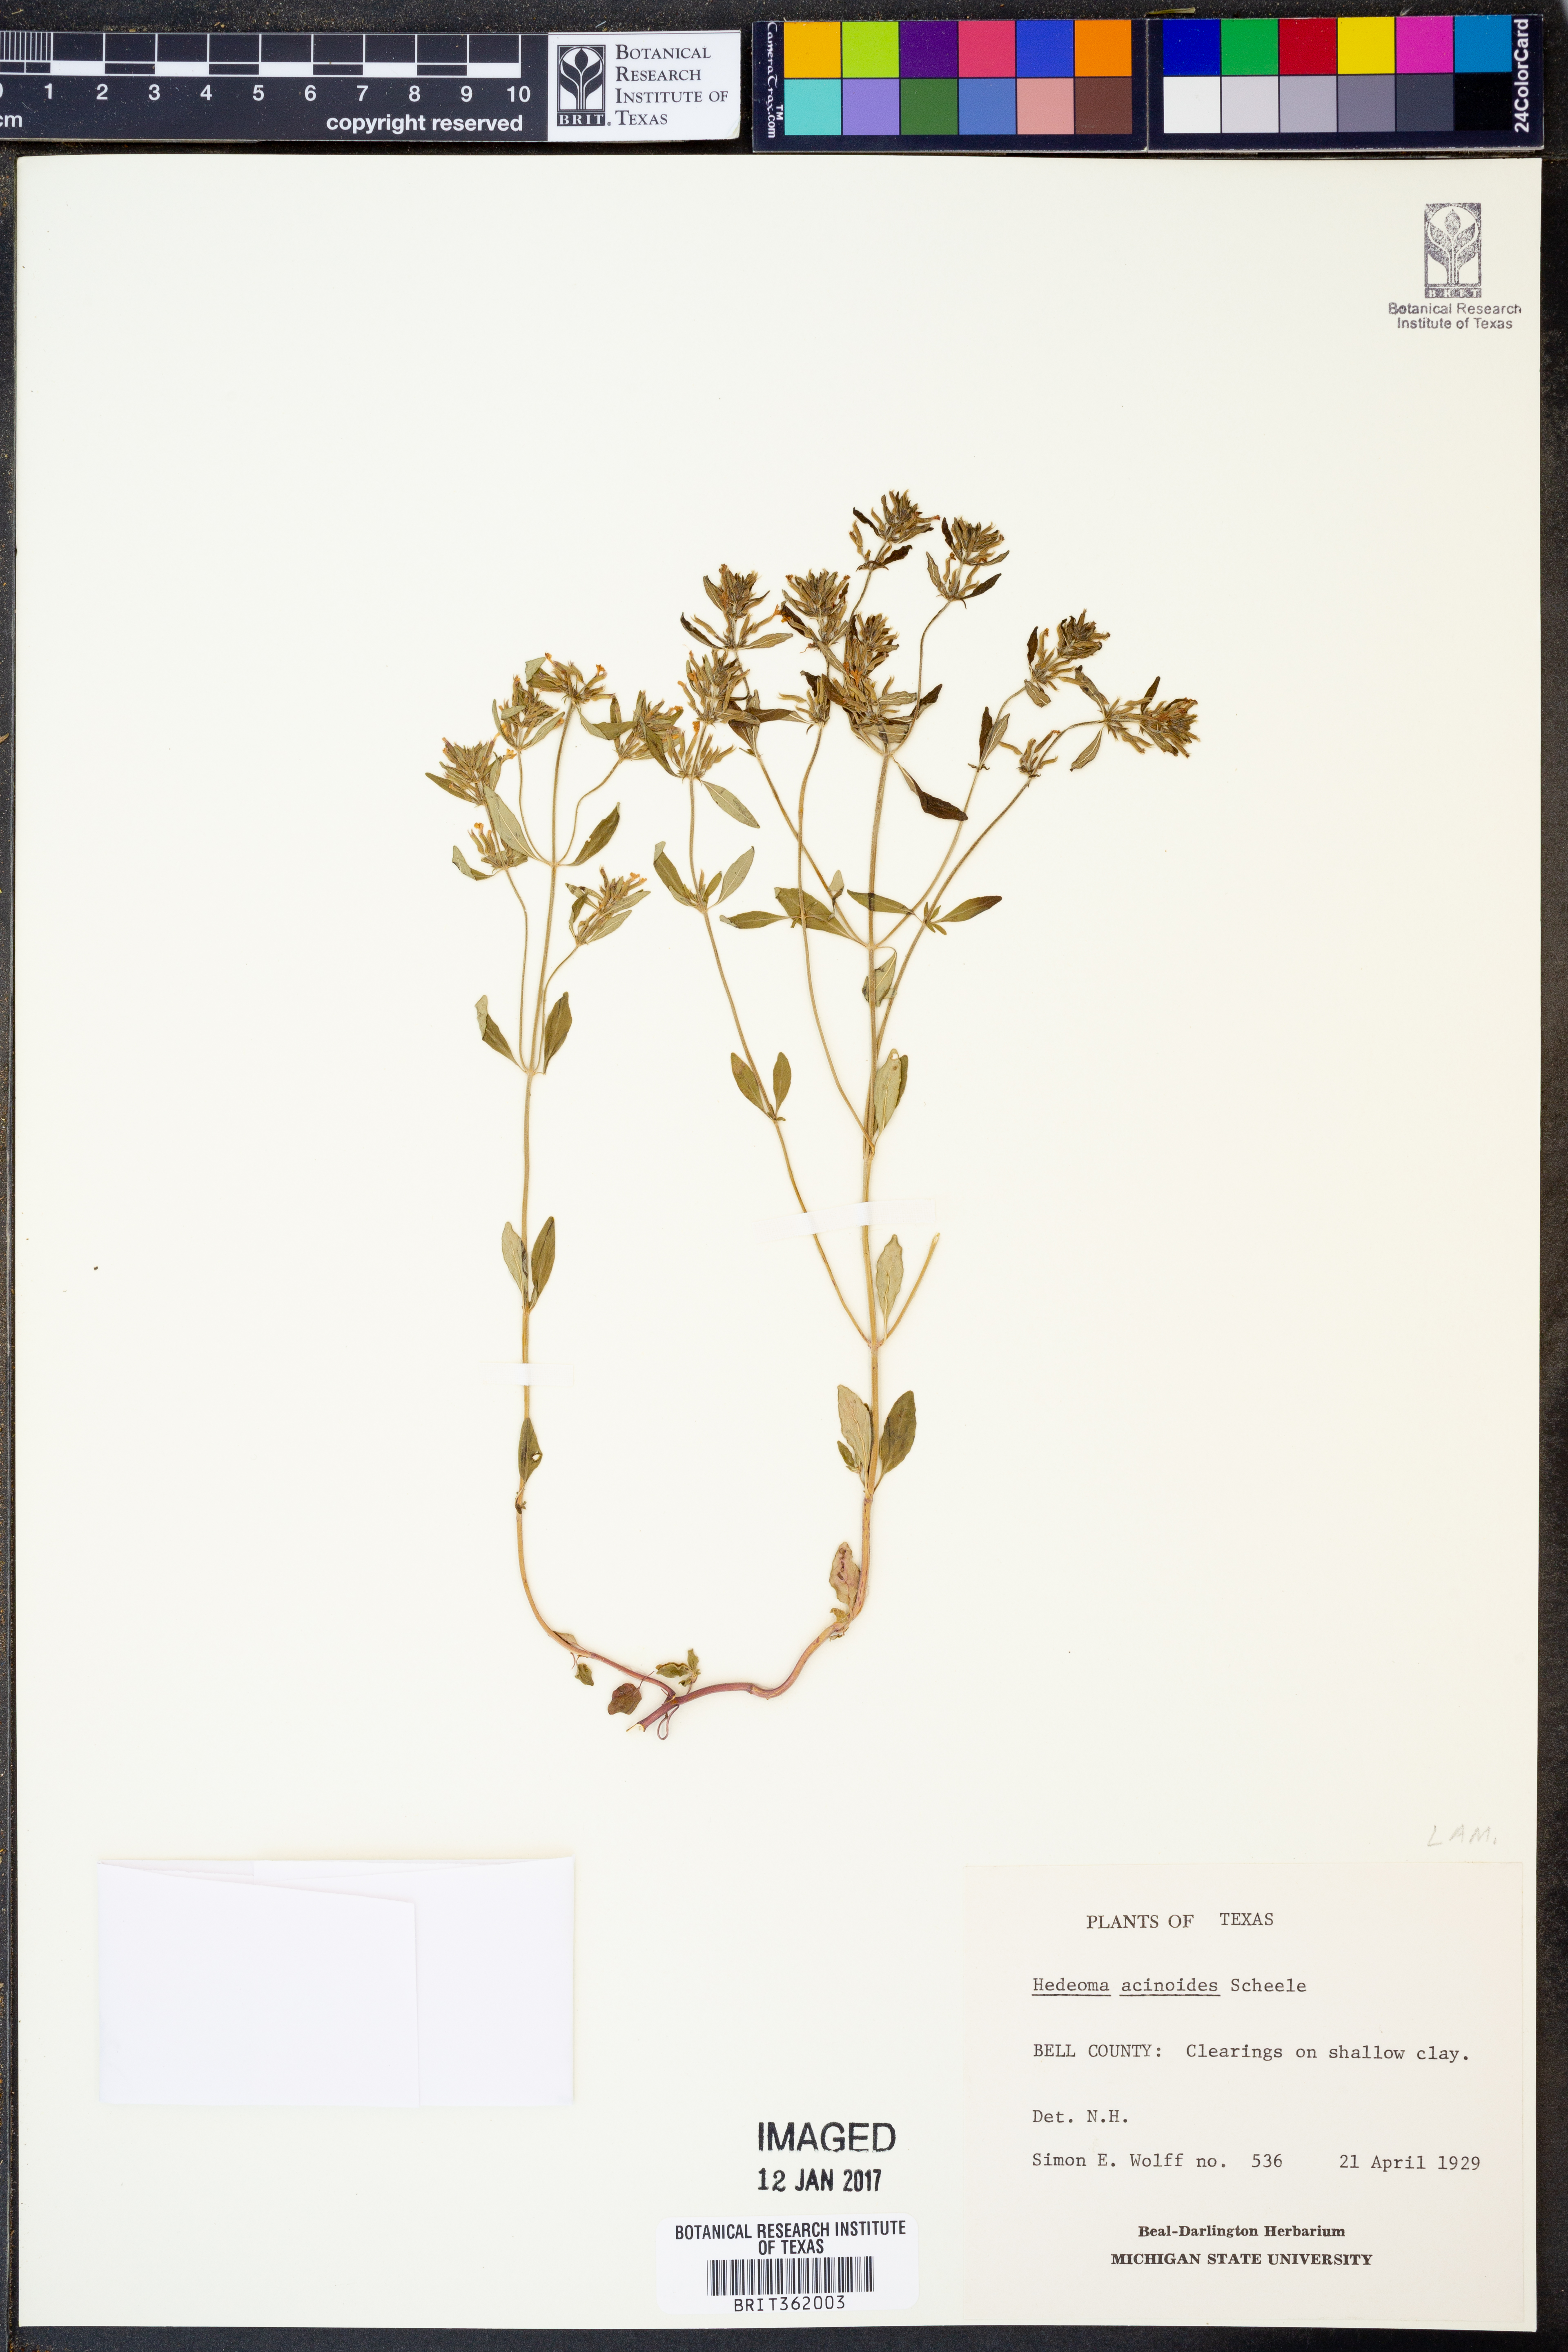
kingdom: Plantae
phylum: Tracheophyta
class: Magnoliopsida
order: Lamiales
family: Lamiaceae
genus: Hedeoma
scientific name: Hedeoma acinoides
